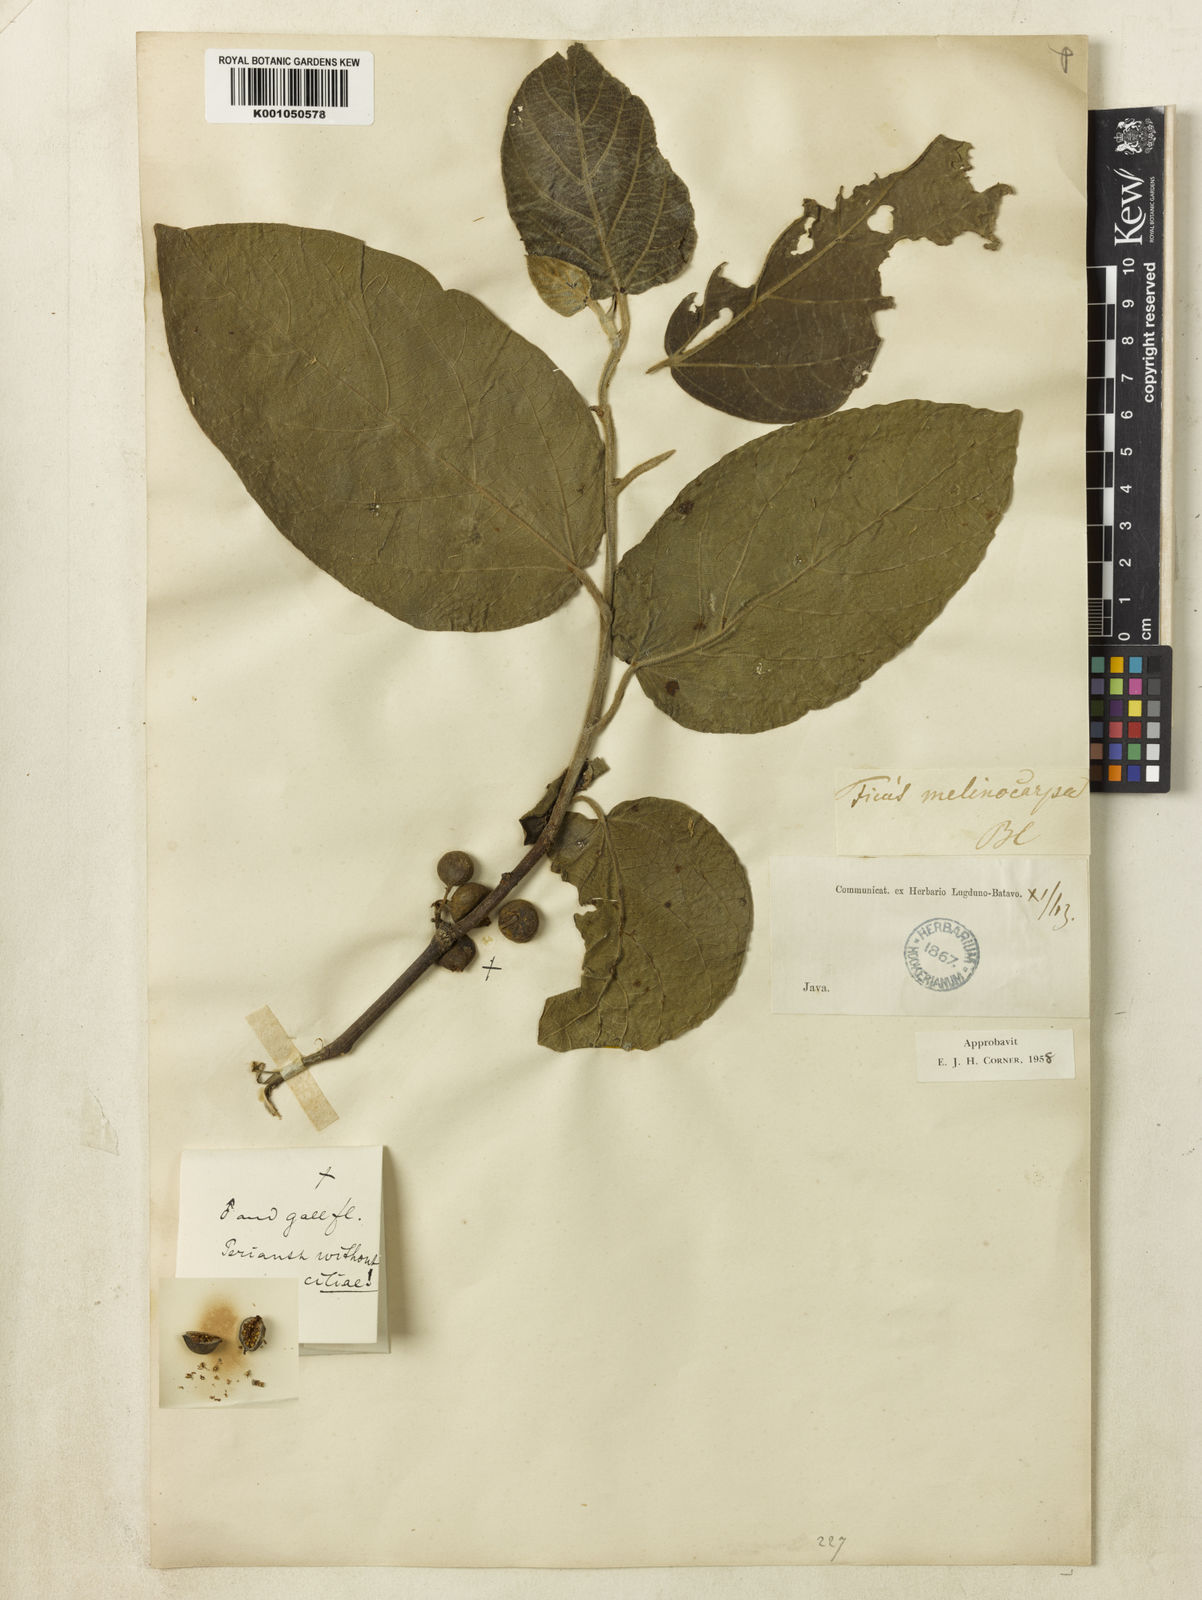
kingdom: Plantae
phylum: Tracheophyta
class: Magnoliopsida
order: Rosales
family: Moraceae
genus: Ficus
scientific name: Ficus melinocarpa
